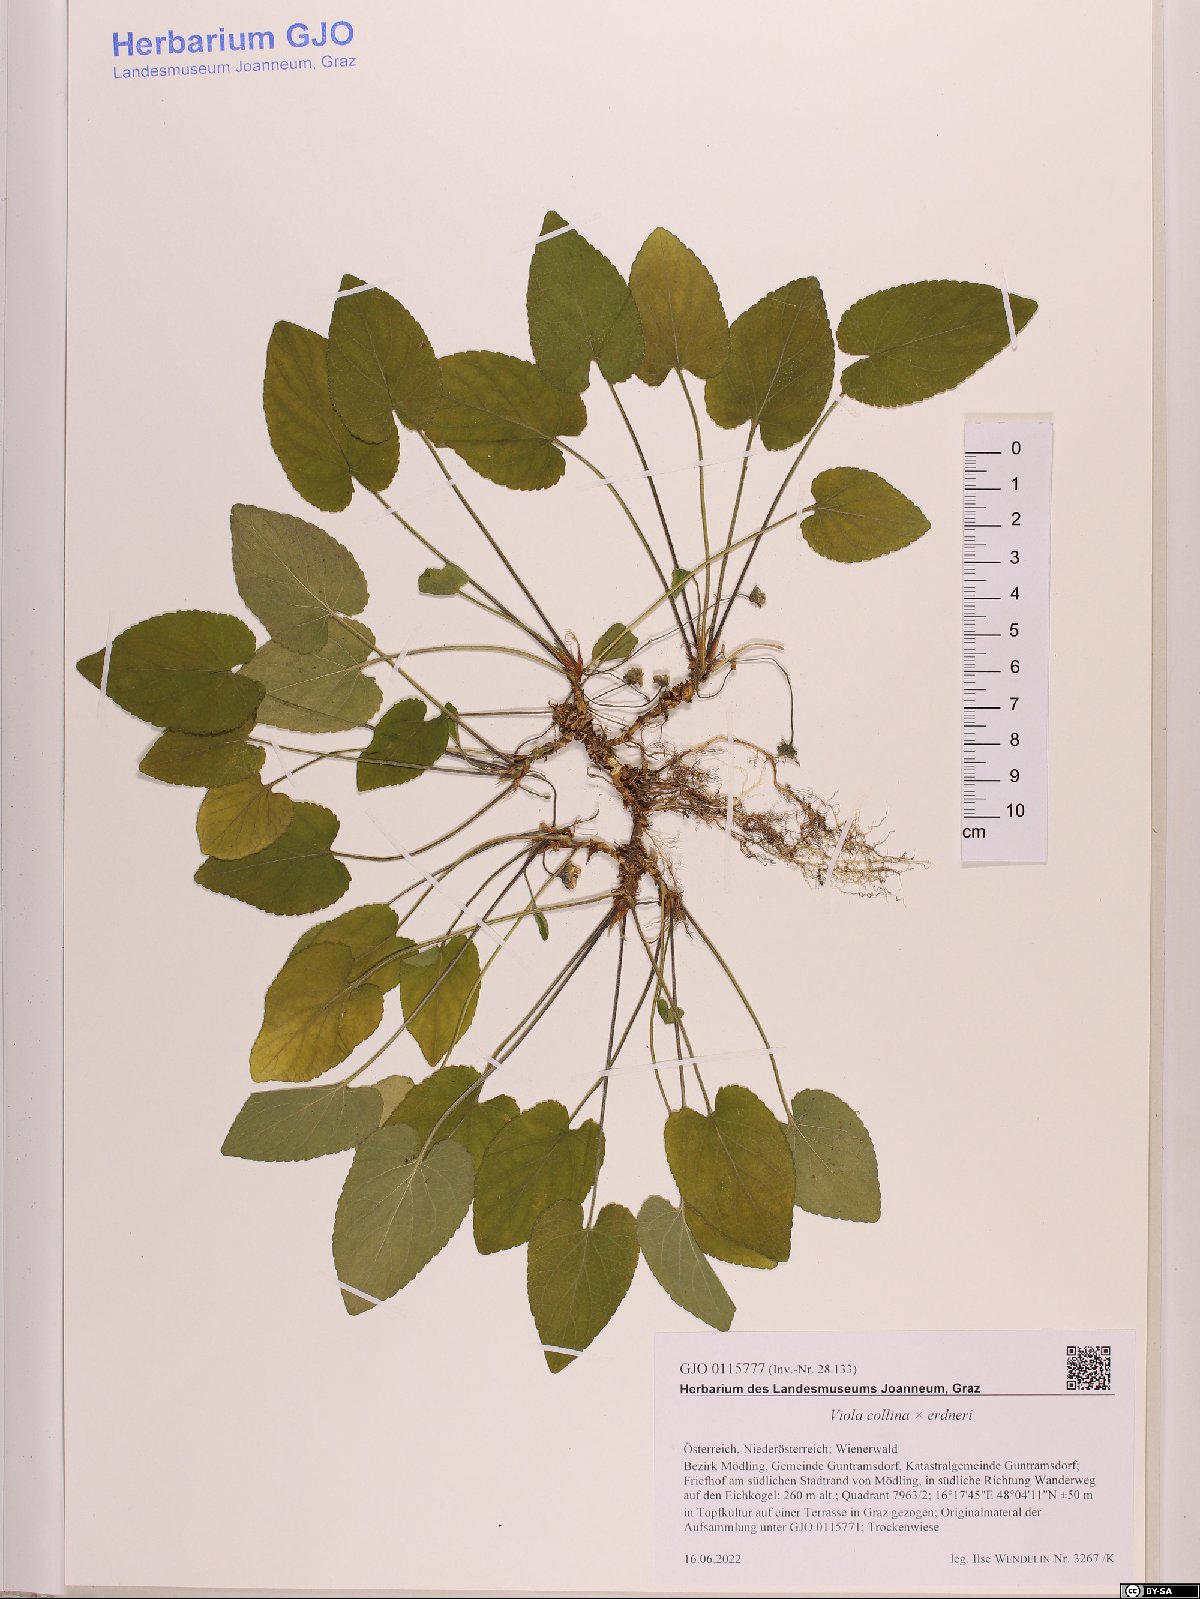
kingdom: Plantae
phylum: Tracheophyta
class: Magnoliopsida
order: Malpighiales
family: Violaceae
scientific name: Violaceae
